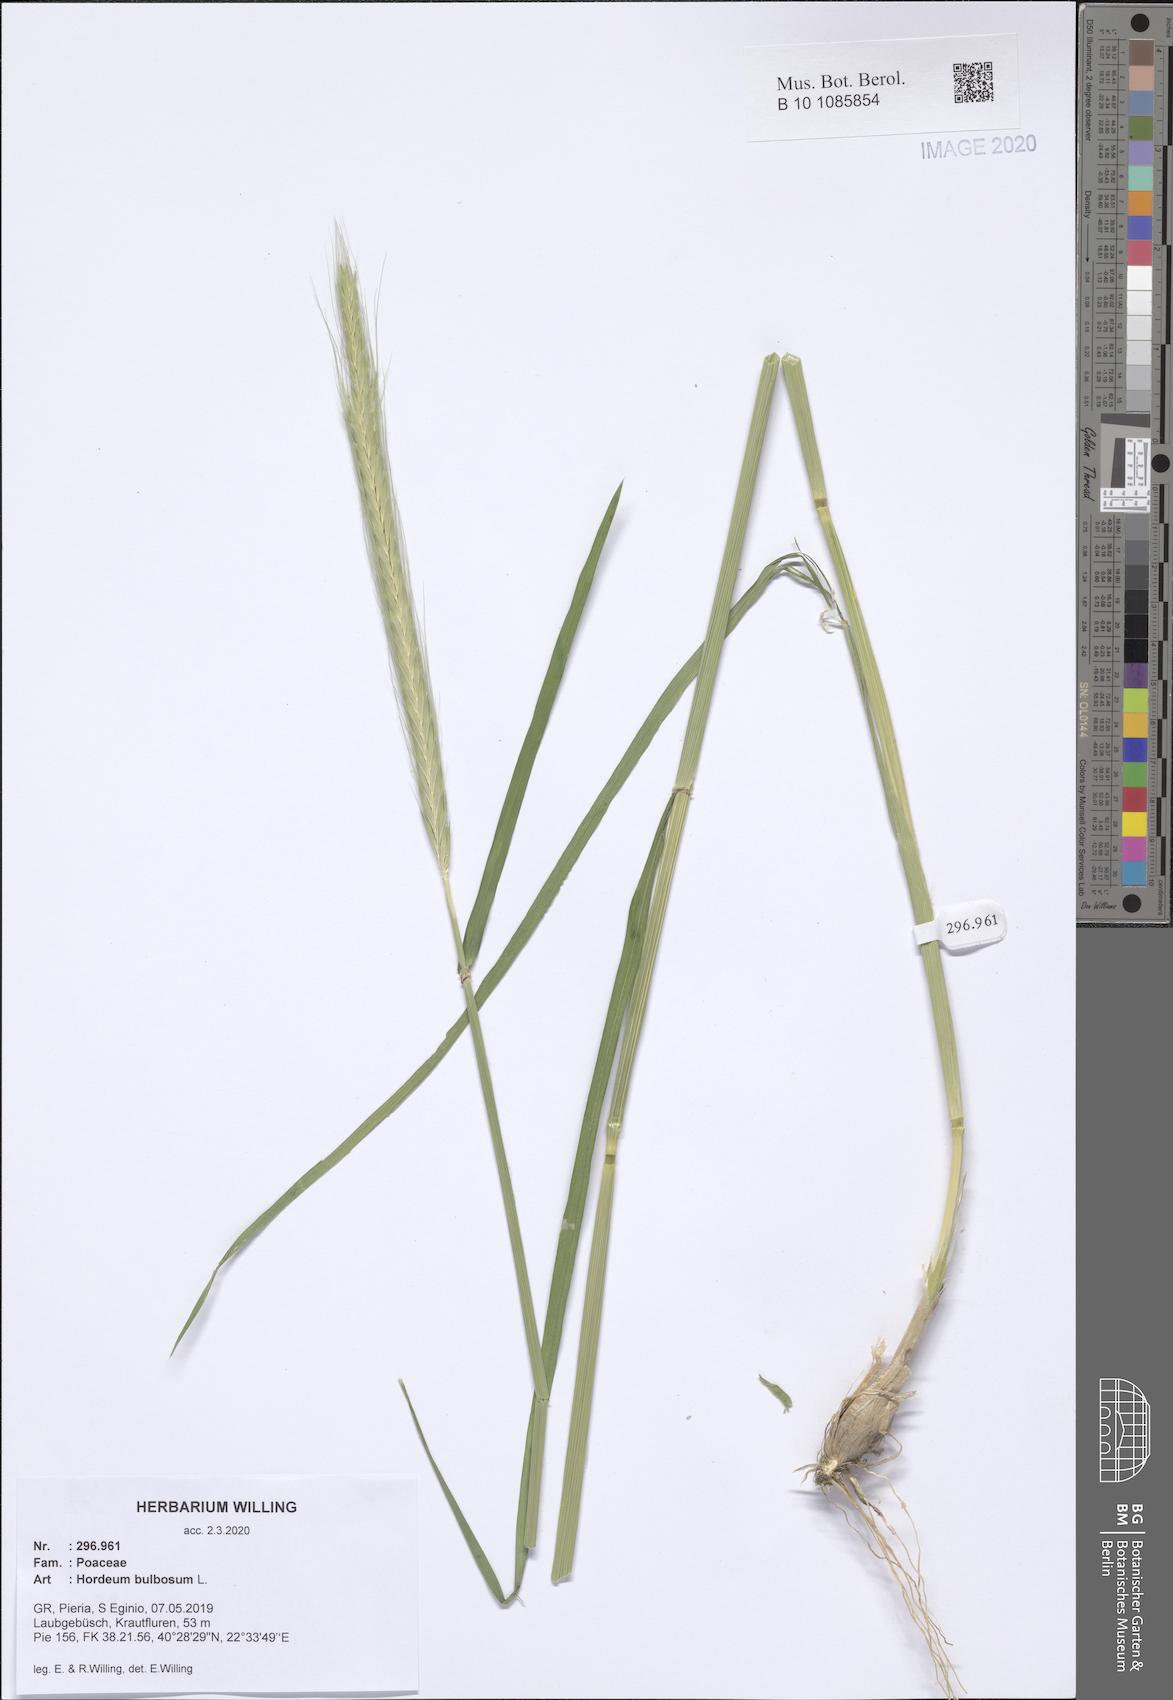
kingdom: Plantae
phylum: Tracheophyta
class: Liliopsida
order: Poales
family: Poaceae
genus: Hordeum
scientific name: Hordeum bulbosum
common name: Bulbous barley
